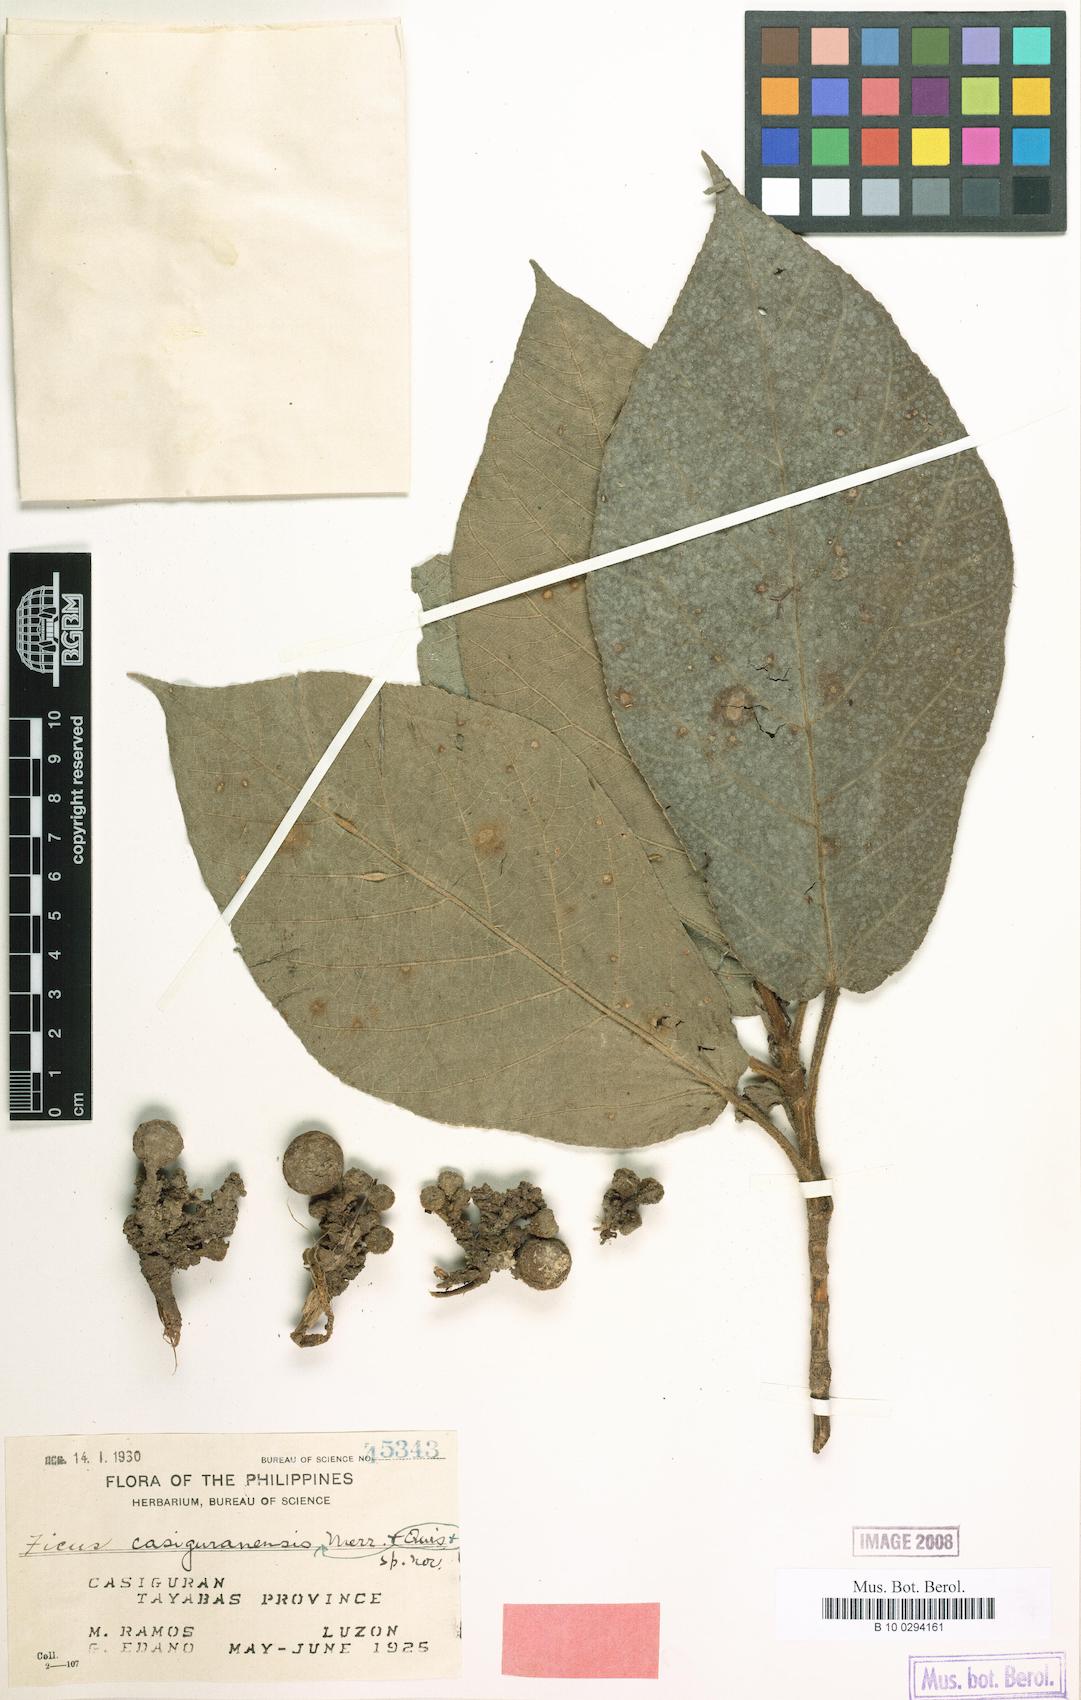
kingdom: Plantae
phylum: Tracheophyta
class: Magnoliopsida
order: Rosales
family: Moraceae
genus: Ficus
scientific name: Ficus cassidyana
